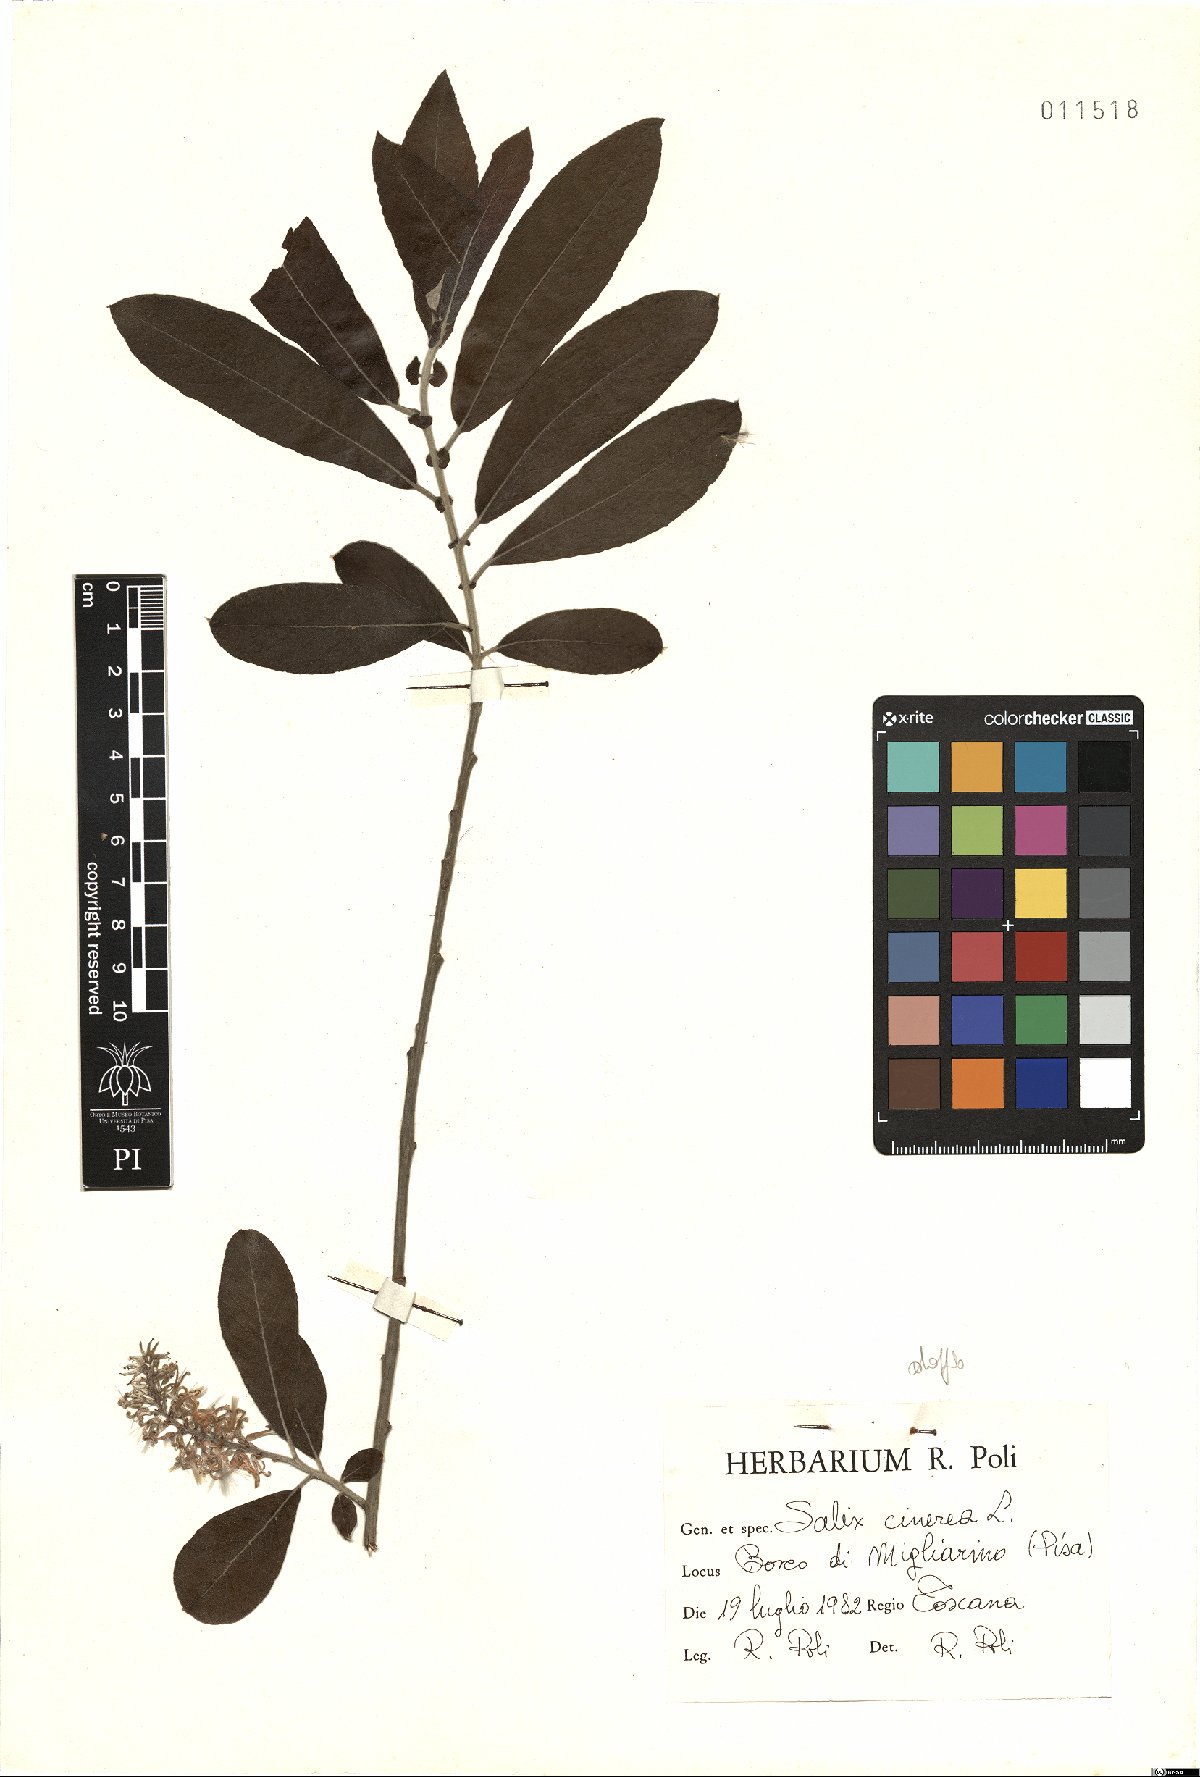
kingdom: Plantae
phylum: Tracheophyta
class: Magnoliopsida
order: Malpighiales
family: Salicaceae
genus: Salix
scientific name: Salix cinerea
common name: Common sallow
